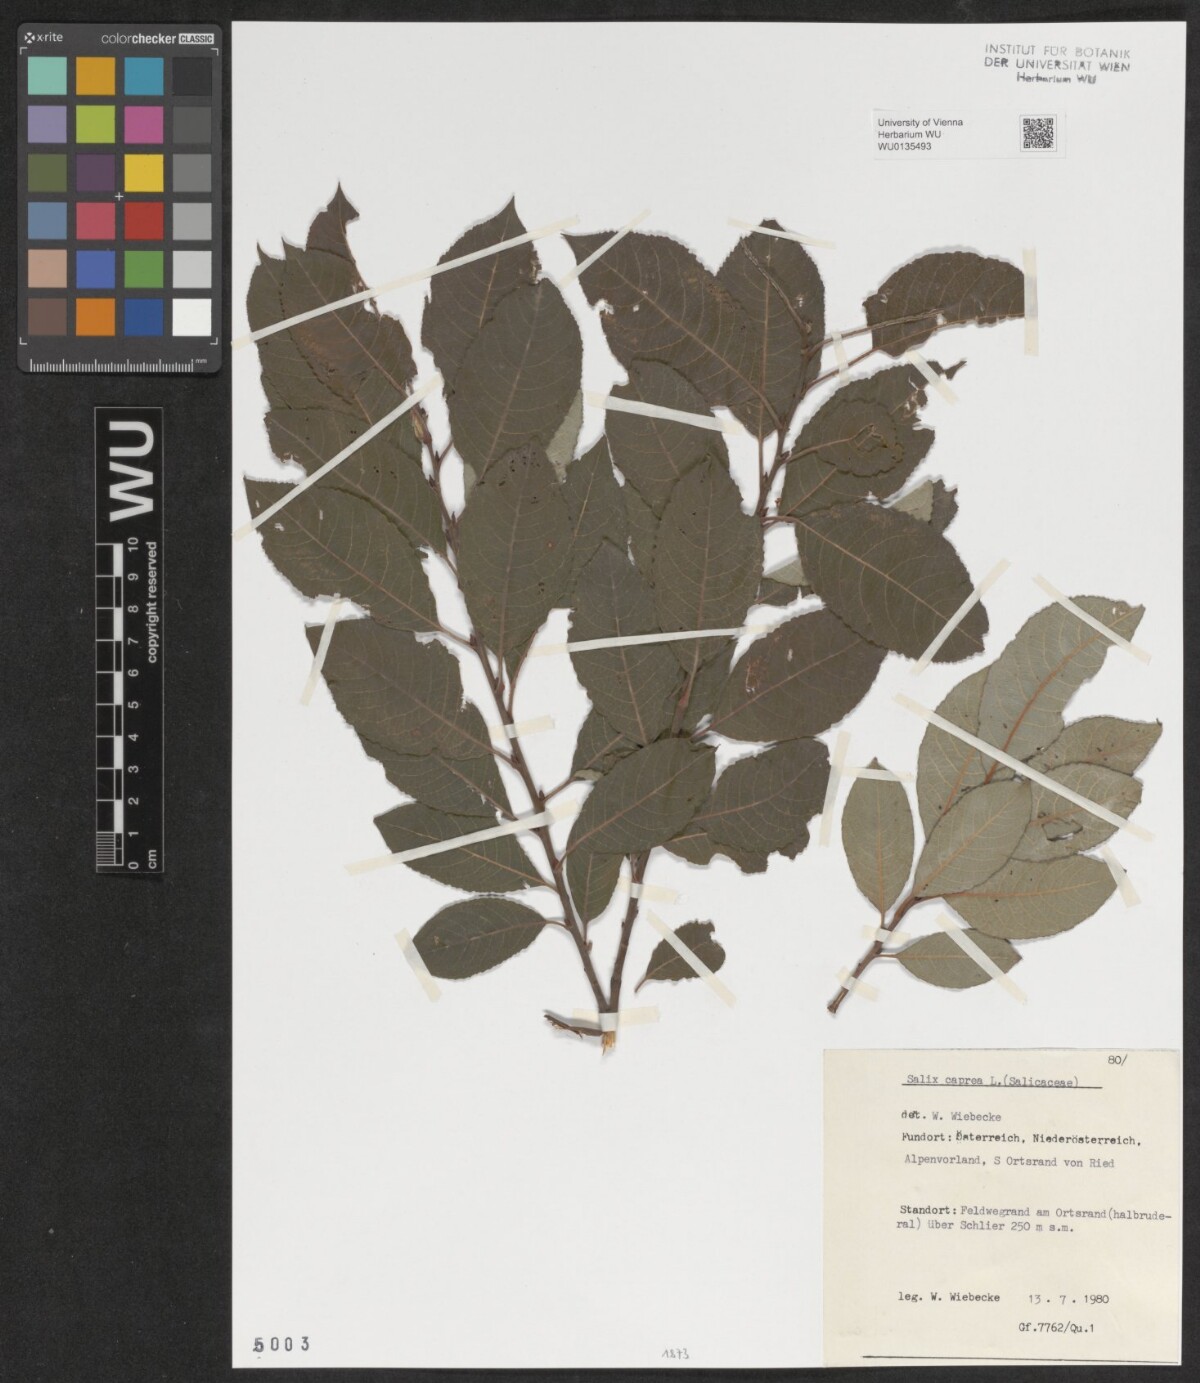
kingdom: Plantae
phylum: Tracheophyta
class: Magnoliopsida
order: Malpighiales
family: Salicaceae
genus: Salix
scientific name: Salix caprea
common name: Goat willow
